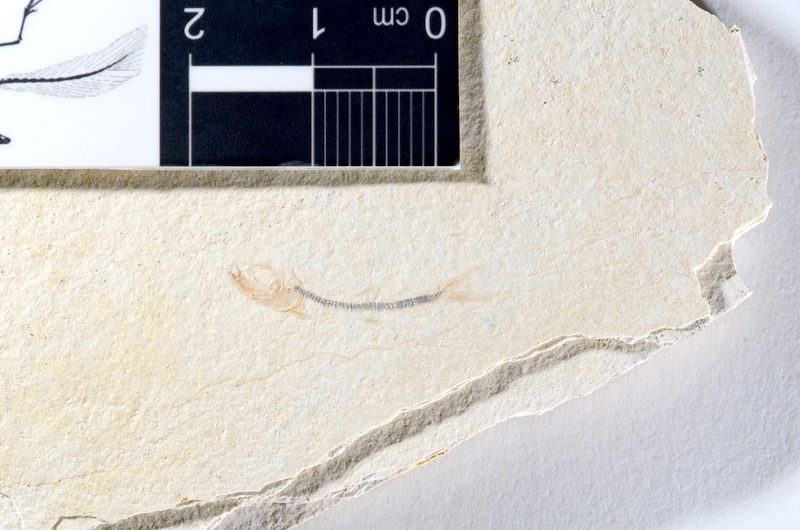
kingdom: Animalia
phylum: Chordata
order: Salmoniformes
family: Orthogonikleithridae
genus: Orthogonikleithrus
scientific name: Orthogonikleithrus hoelli
